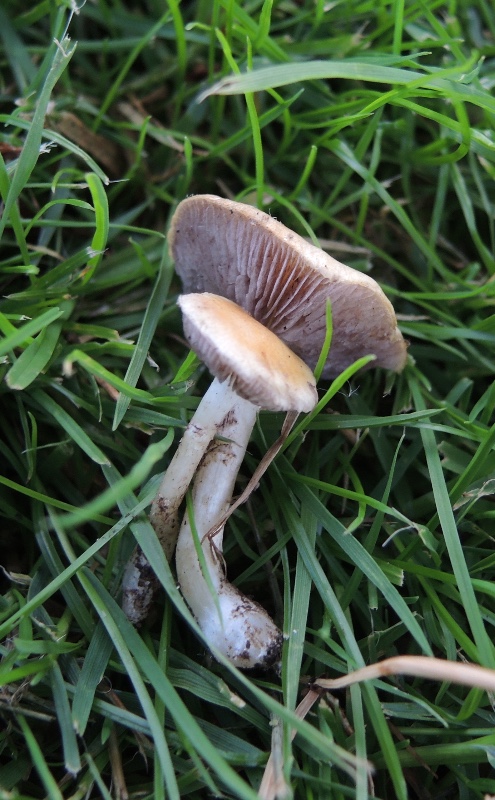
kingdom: Fungi
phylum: Basidiomycota
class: Agaricomycetes
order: Agaricales
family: Hymenogastraceae
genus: Psilocybe
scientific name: Psilocybe coronilla
